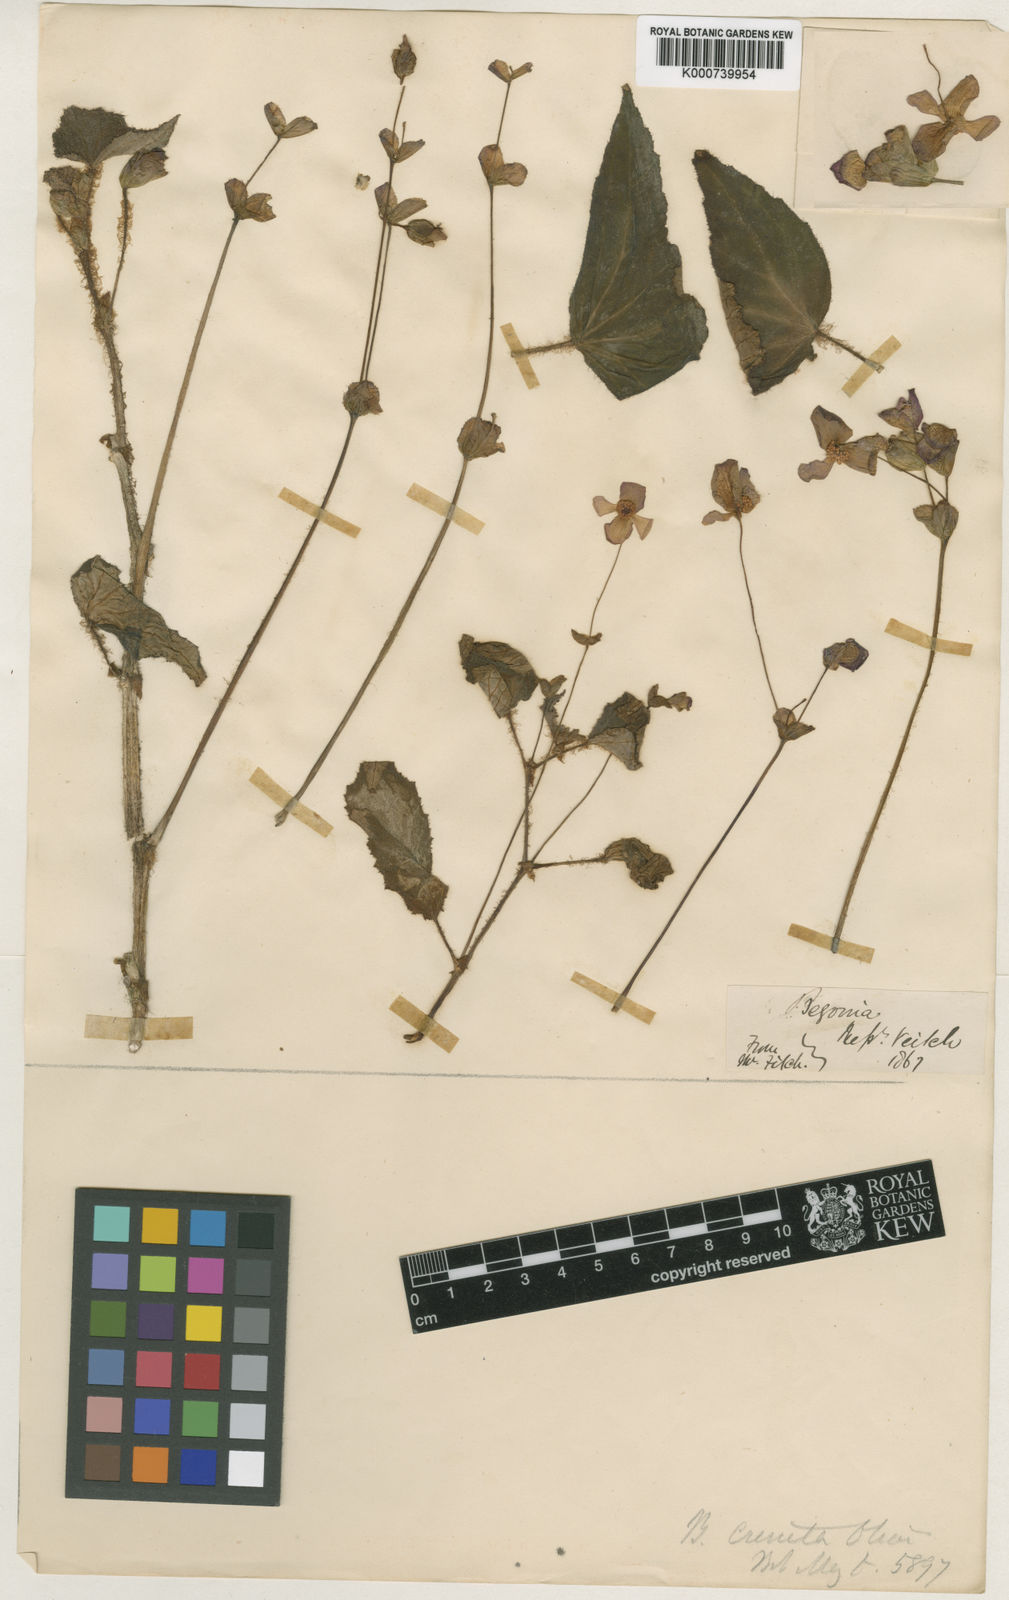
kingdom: Plantae
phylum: Tracheophyta
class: Magnoliopsida
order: Cucurbitales
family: Begoniaceae
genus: Begonia
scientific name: Begonia micranthera
